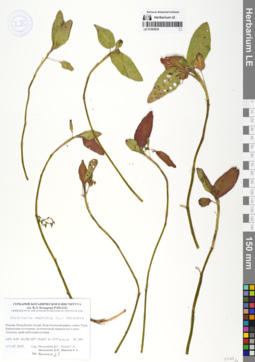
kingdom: Plantae
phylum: Tracheophyta
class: Magnoliopsida
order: Caryophyllales
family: Polygonaceae
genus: Persicaria
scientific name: Persicaria amphibia
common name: Amphibious bistort
